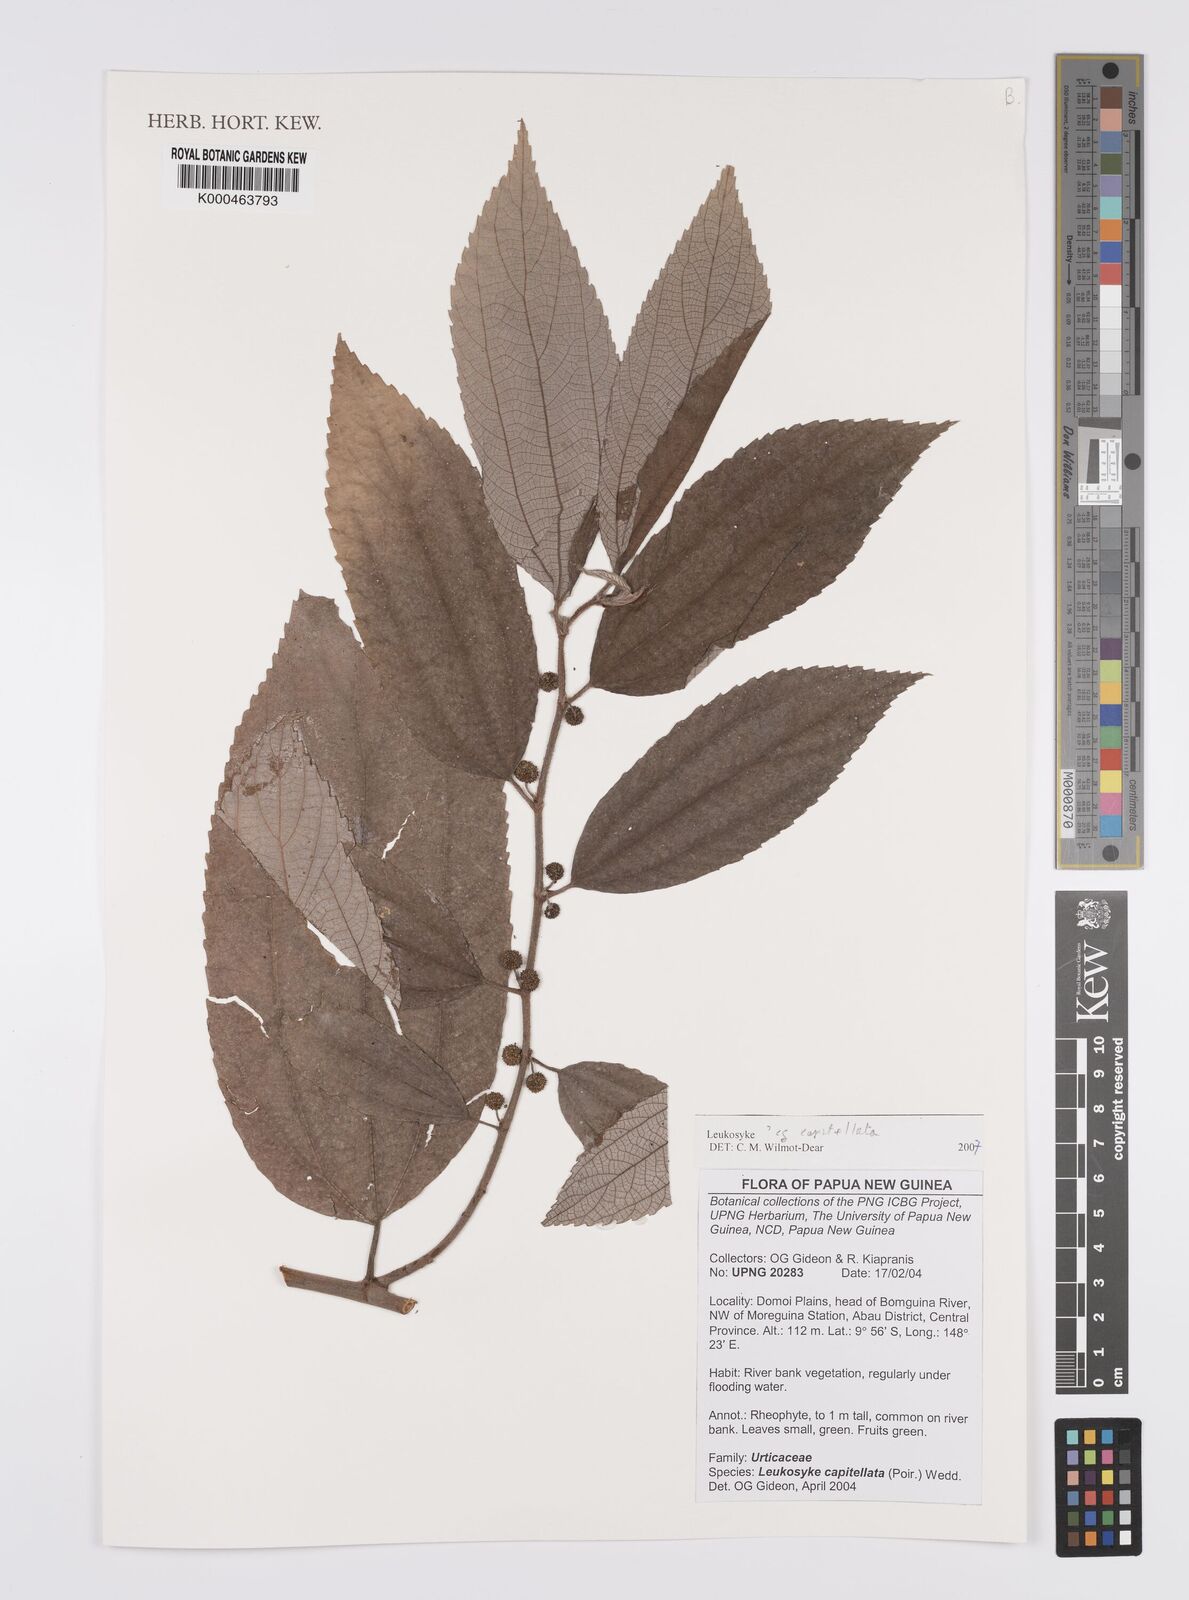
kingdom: Plantae
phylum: Tracheophyta
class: Magnoliopsida
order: Rosales
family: Urticaceae
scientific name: Urticaceae
